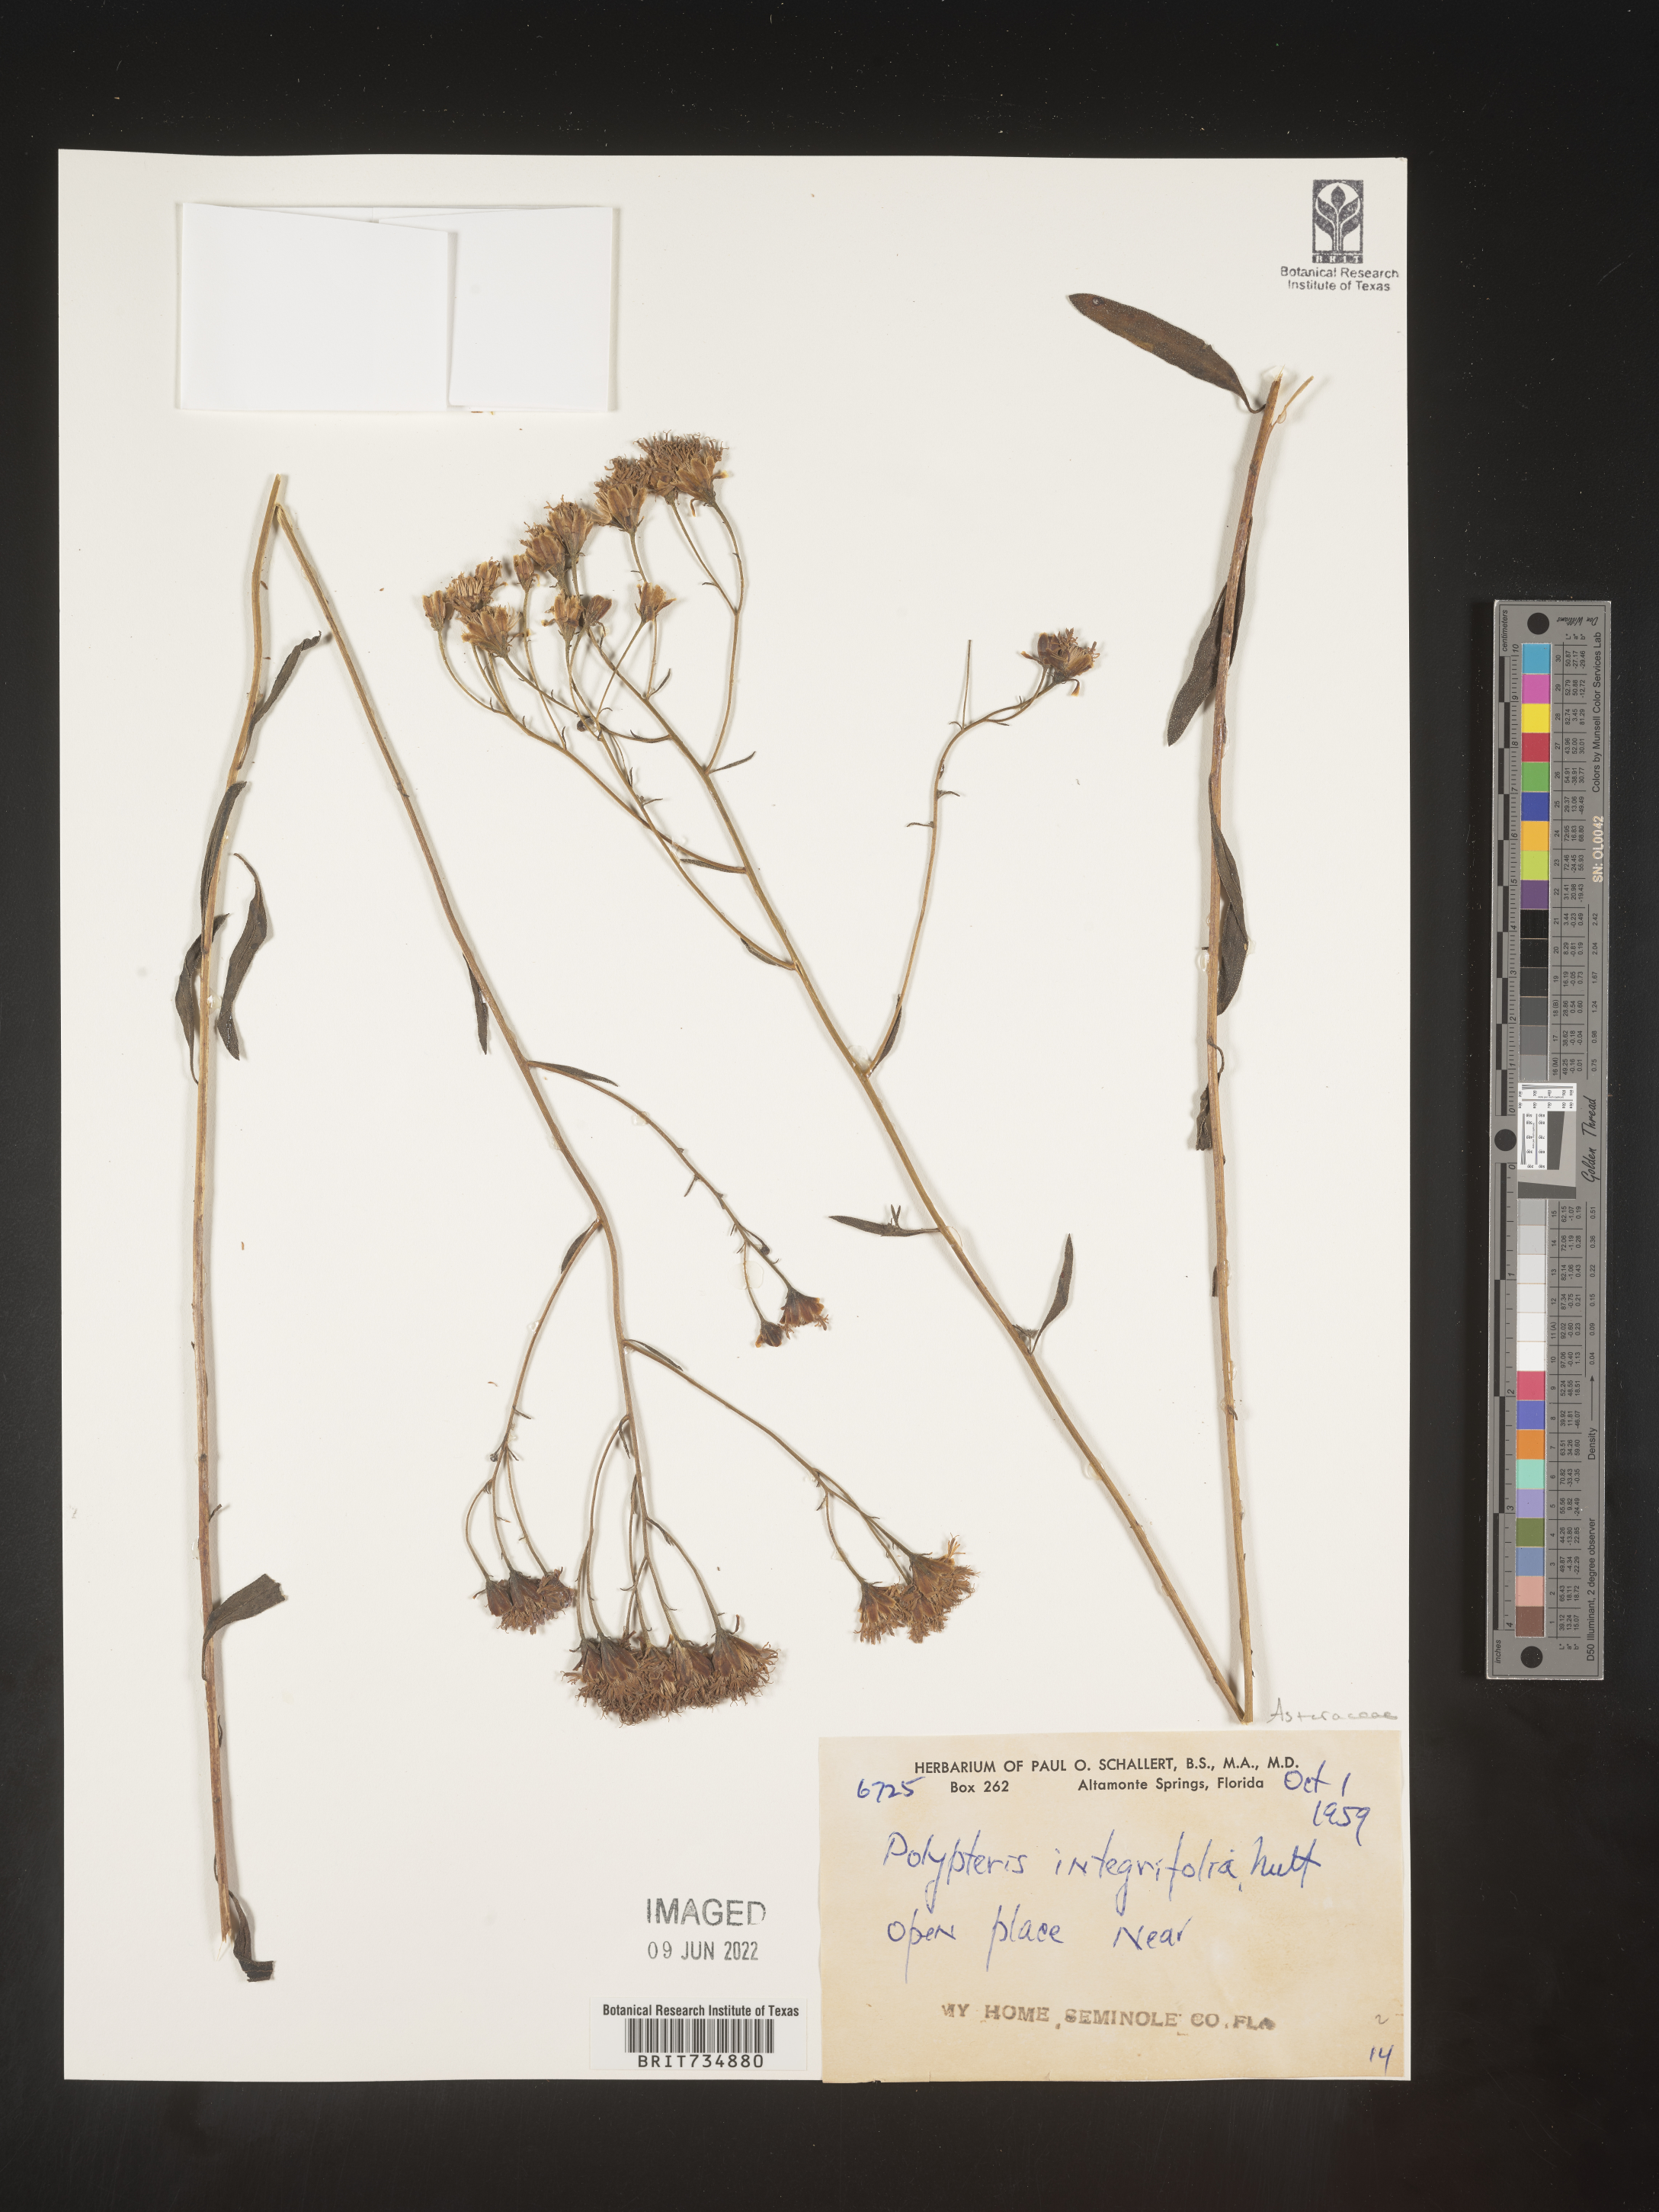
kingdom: Plantae
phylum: Tracheophyta
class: Magnoliopsida
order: Asterales
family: Asteraceae
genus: Palafoxia
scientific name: Palafoxia integrifolia
